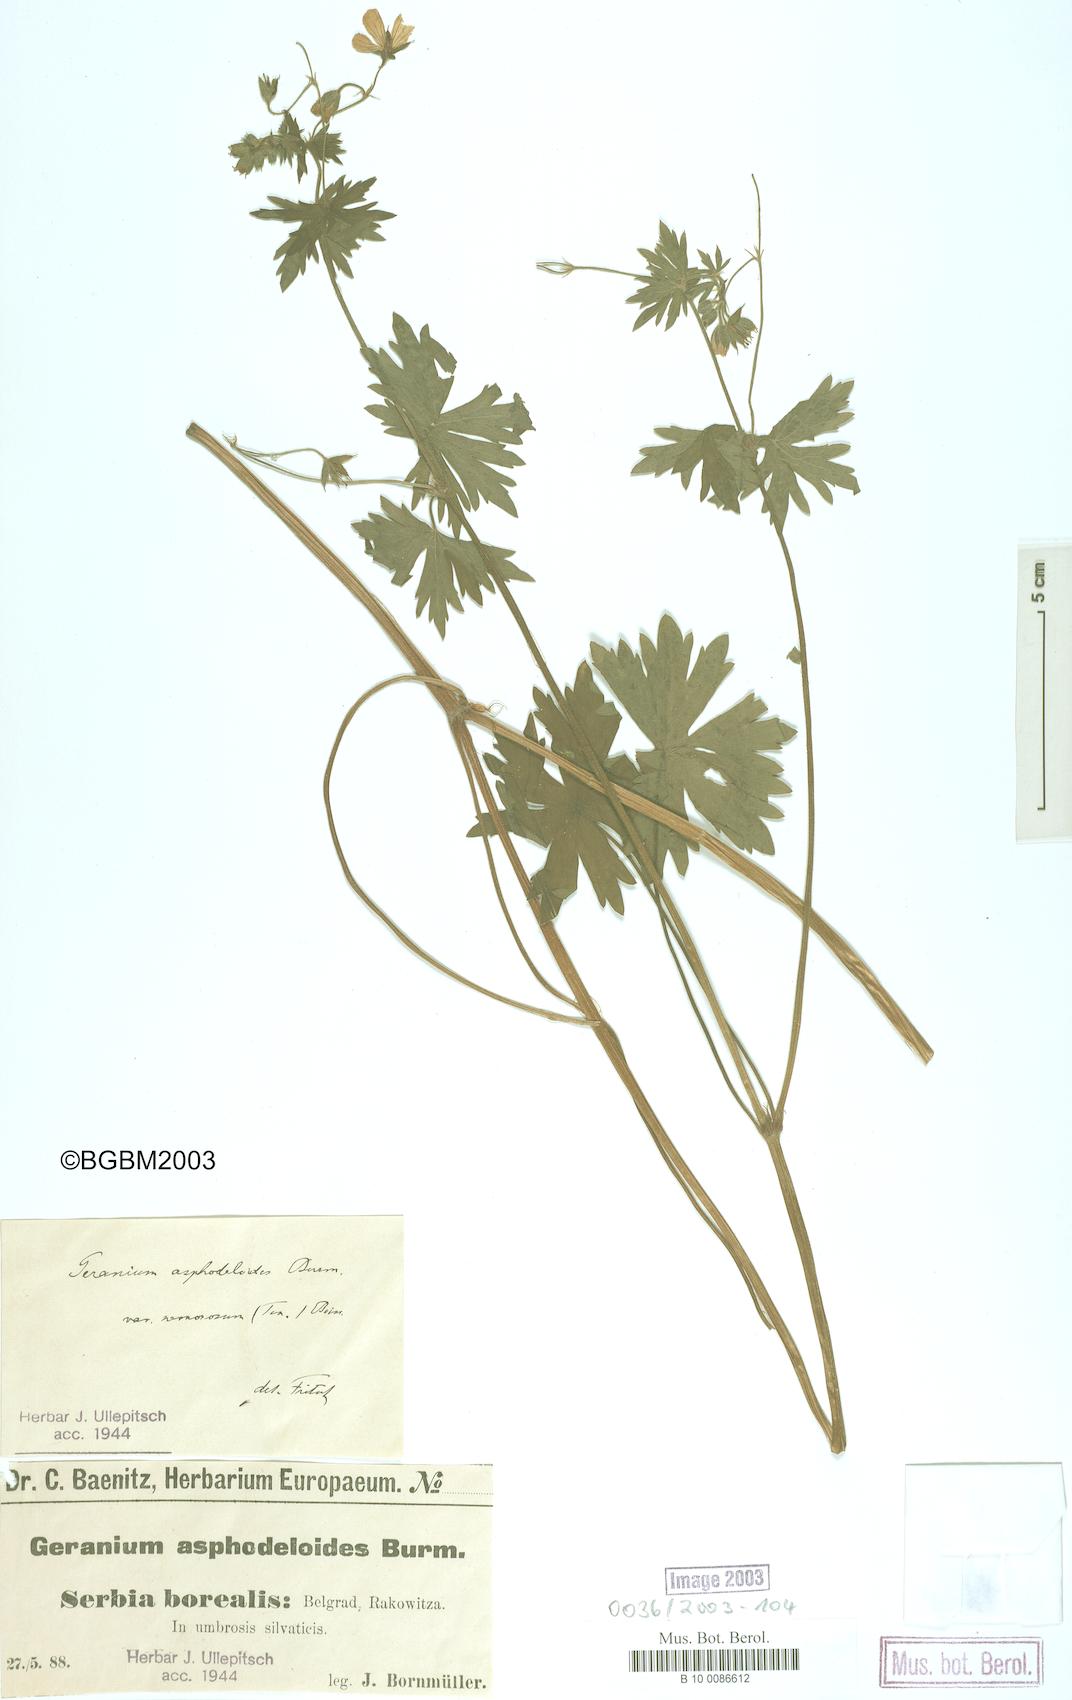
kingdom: Plantae
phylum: Tracheophyta
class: Magnoliopsida
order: Geraniales
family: Geraniaceae
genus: Geranium
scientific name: Geranium asphodeloides
